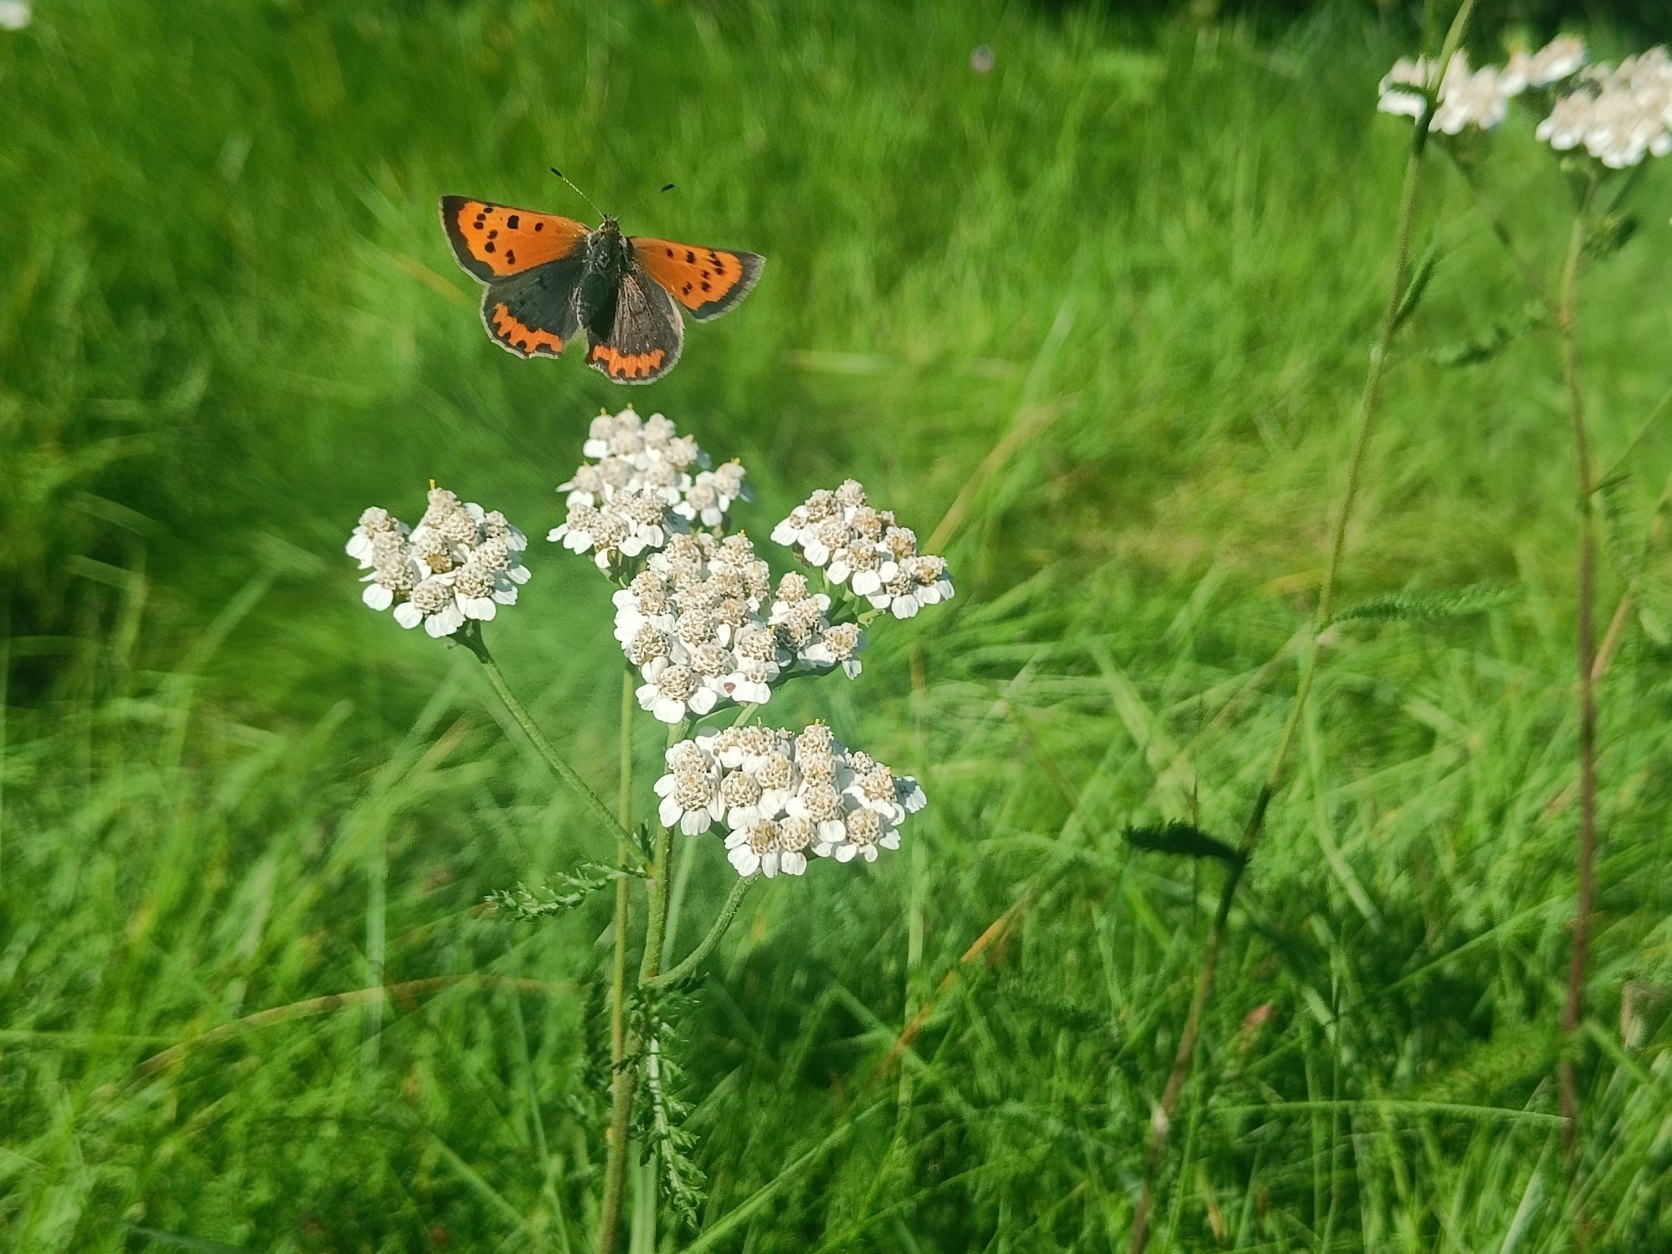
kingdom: Animalia
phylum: Arthropoda
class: Insecta
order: Lepidoptera
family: Lycaenidae
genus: Lycaena
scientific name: Lycaena phlaeas
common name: Lille ildfugl
